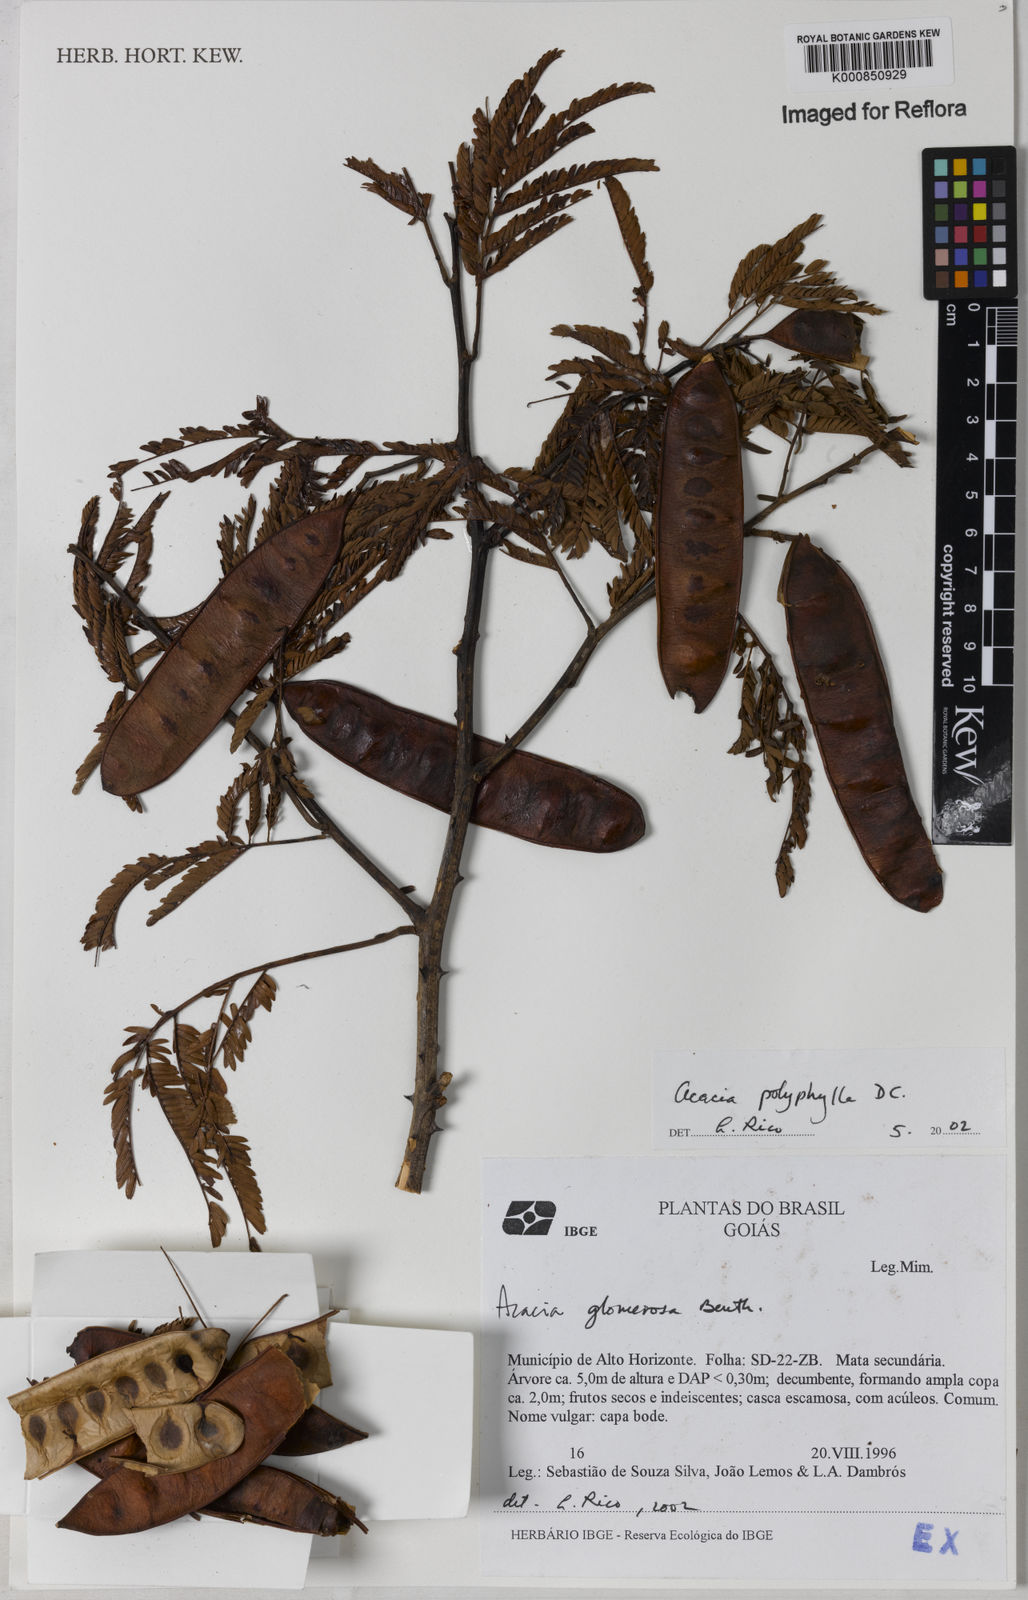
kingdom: Plantae
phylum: Tracheophyta
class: Magnoliopsida
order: Fabales
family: Fabaceae
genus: Senegalia
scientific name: Senegalia polyphylla
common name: White-tamarind
